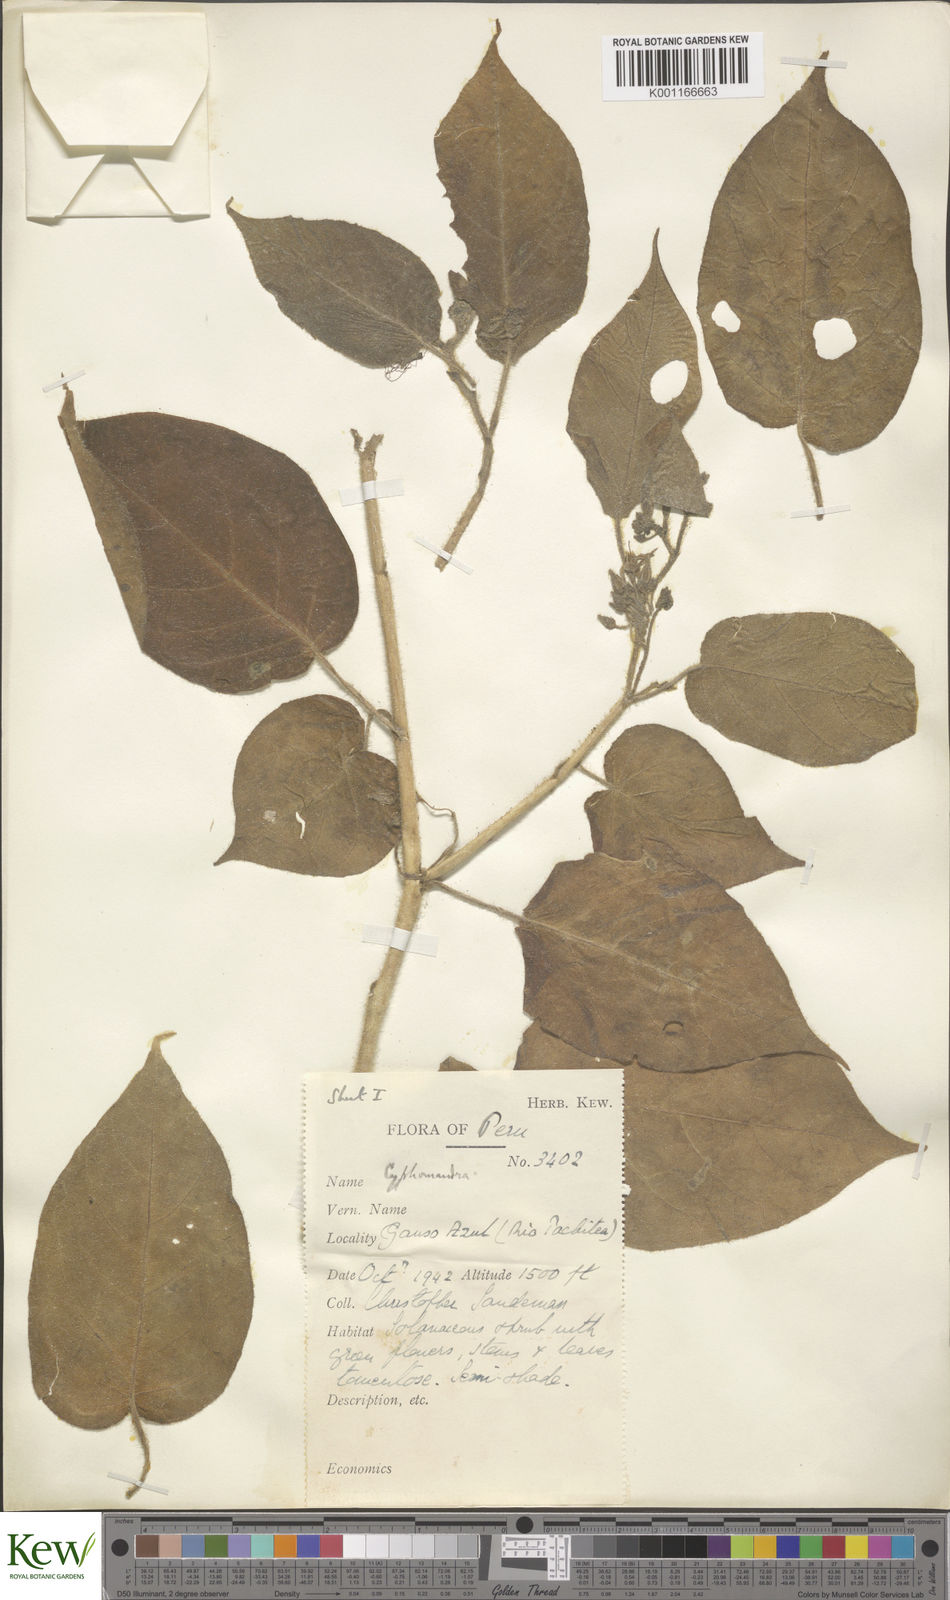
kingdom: Plantae
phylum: Tracheophyta
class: Magnoliopsida
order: Solanales
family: Solanaceae
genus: Solanum
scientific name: Solanum
